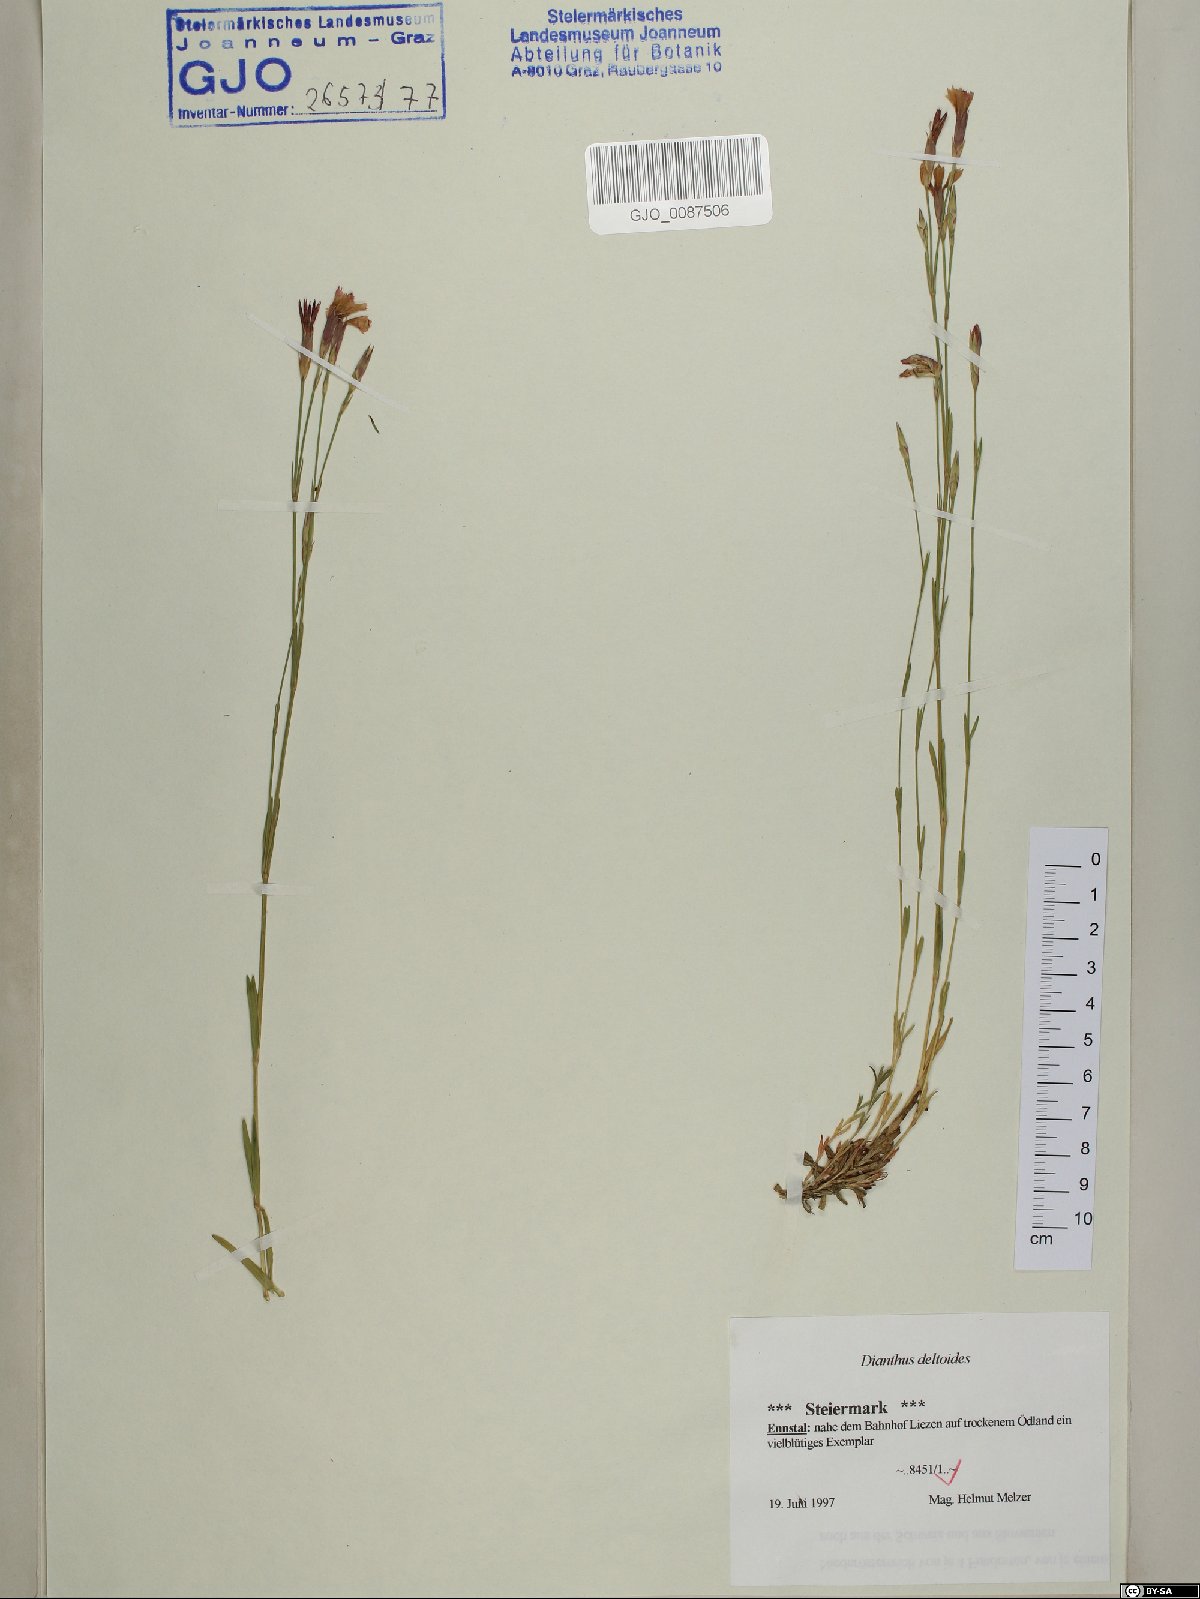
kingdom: Plantae
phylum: Tracheophyta
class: Magnoliopsida
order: Caryophyllales
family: Caryophyllaceae
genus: Dianthus
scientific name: Dianthus deltoides
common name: Maiden pink
